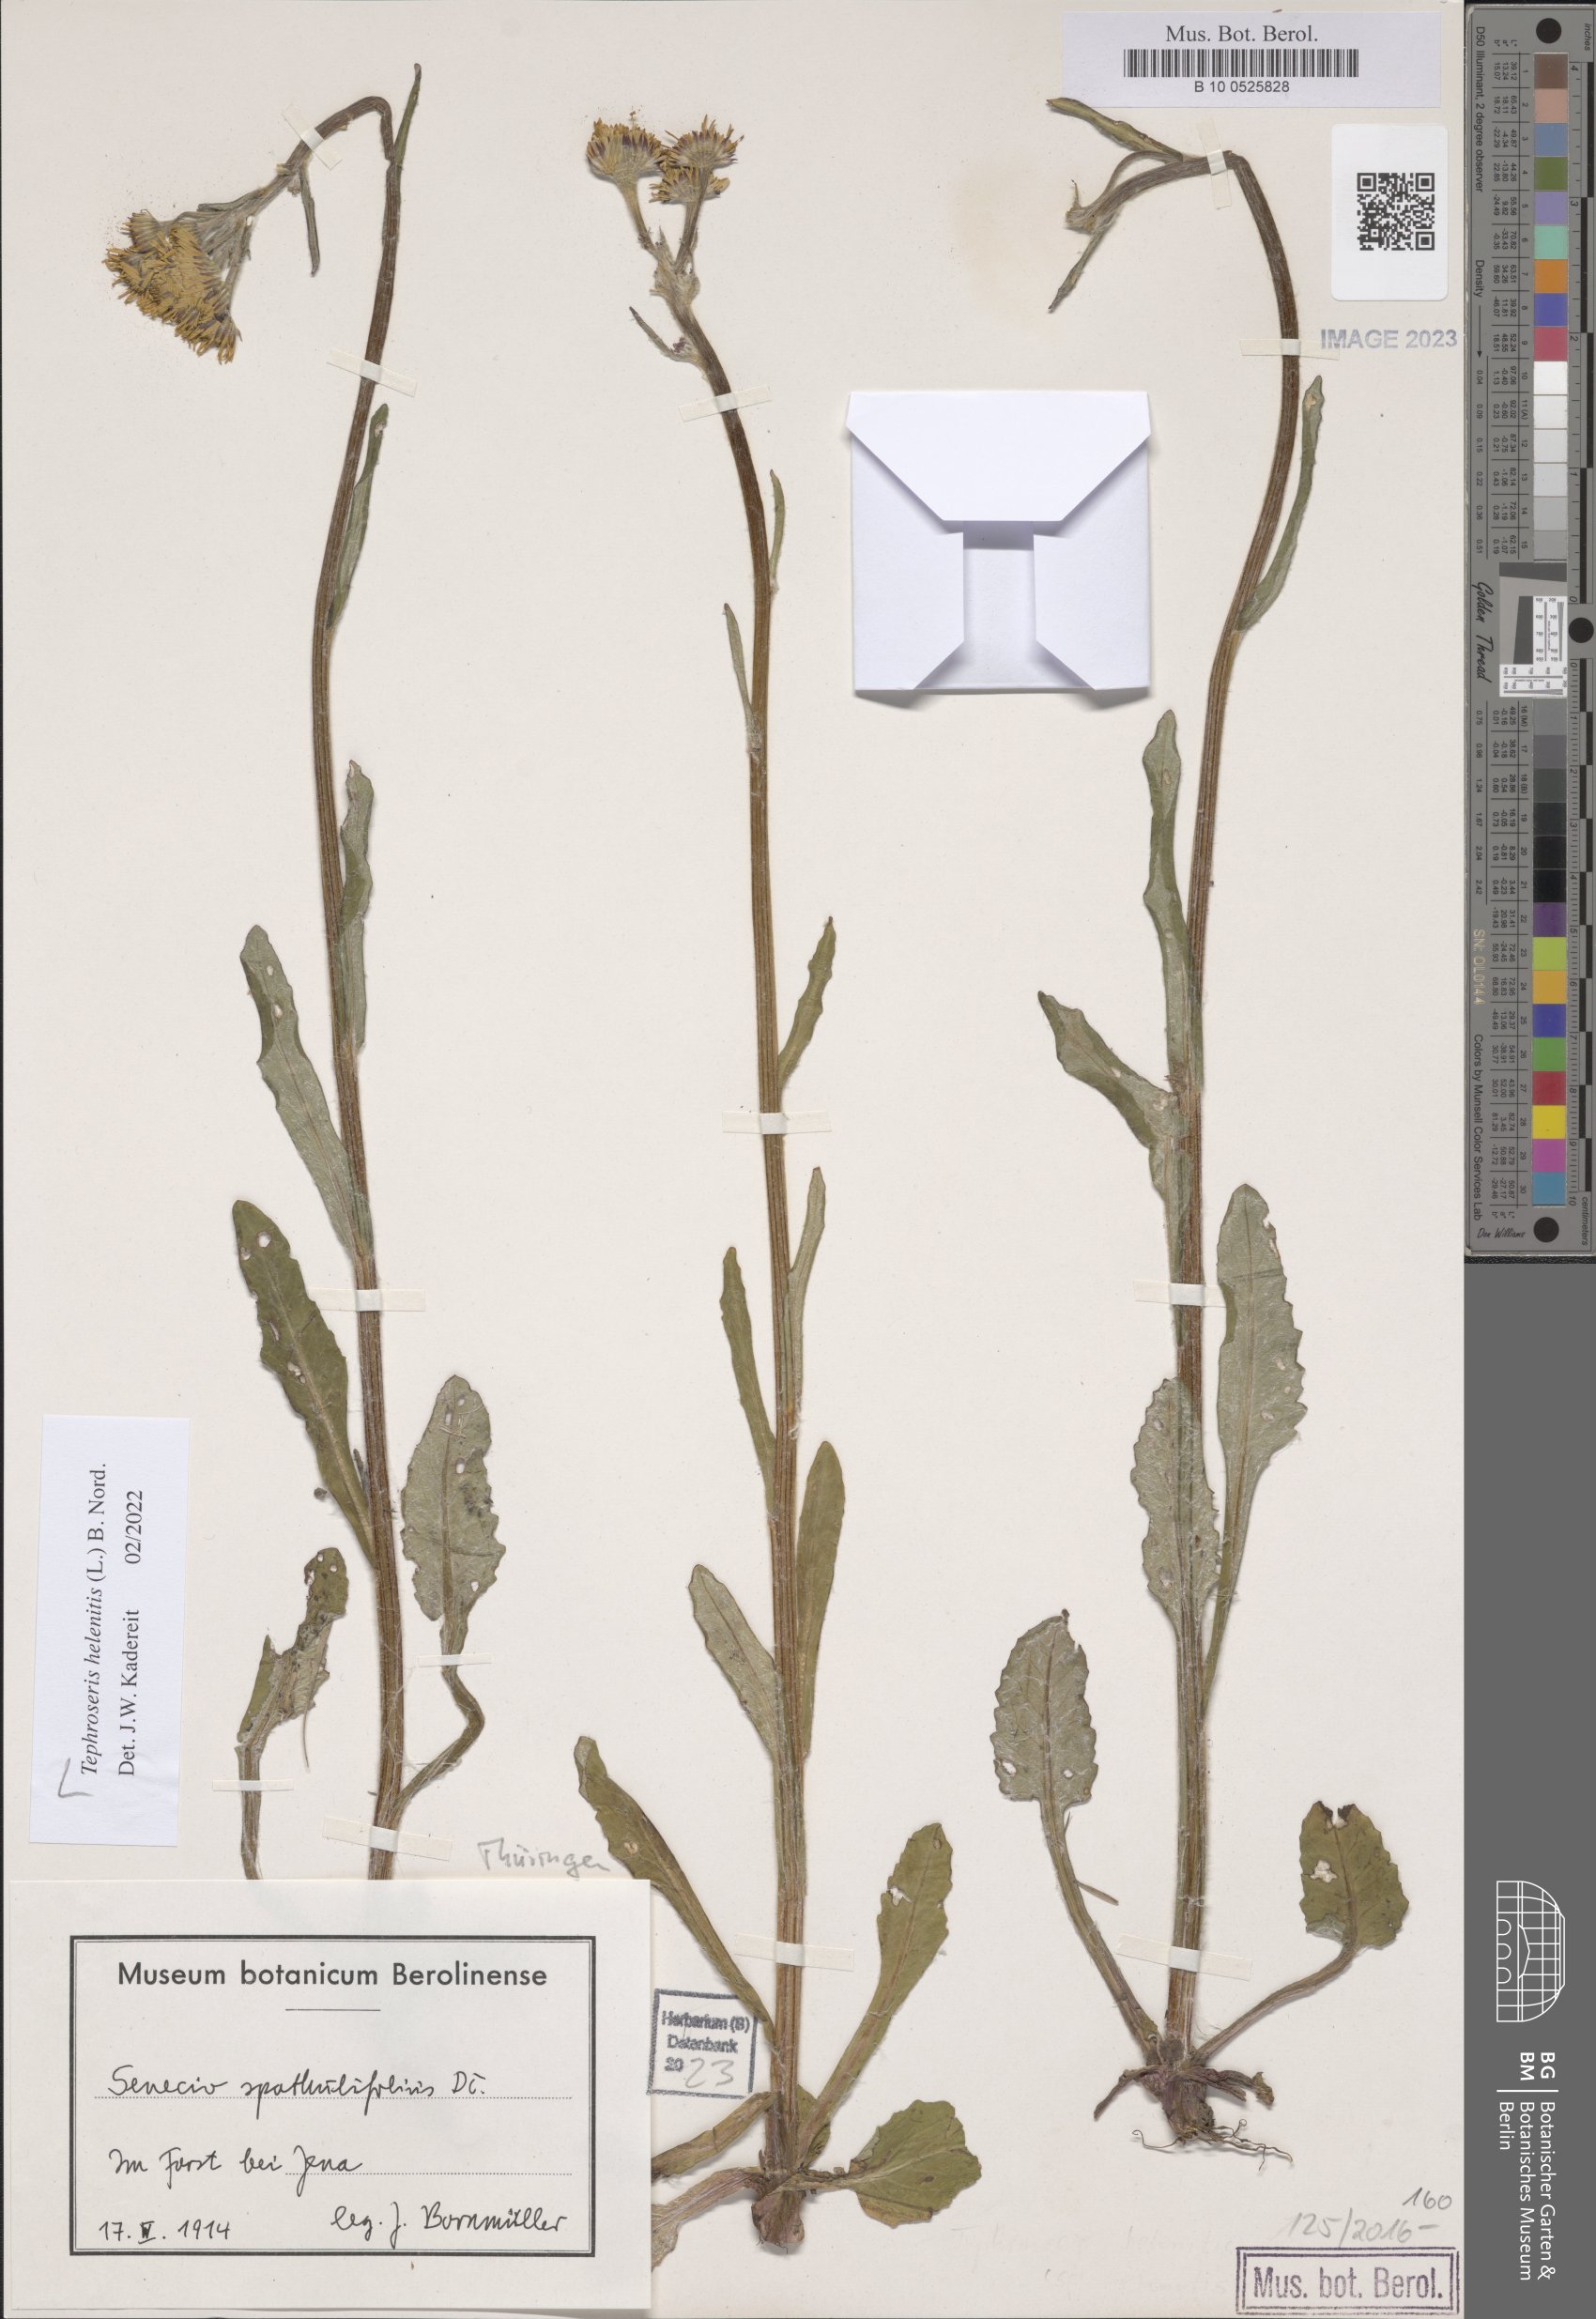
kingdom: Plantae
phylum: Tracheophyta
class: Magnoliopsida
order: Asterales
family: Asteraceae
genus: Tephroseris
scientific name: Tephroseris helenitis
